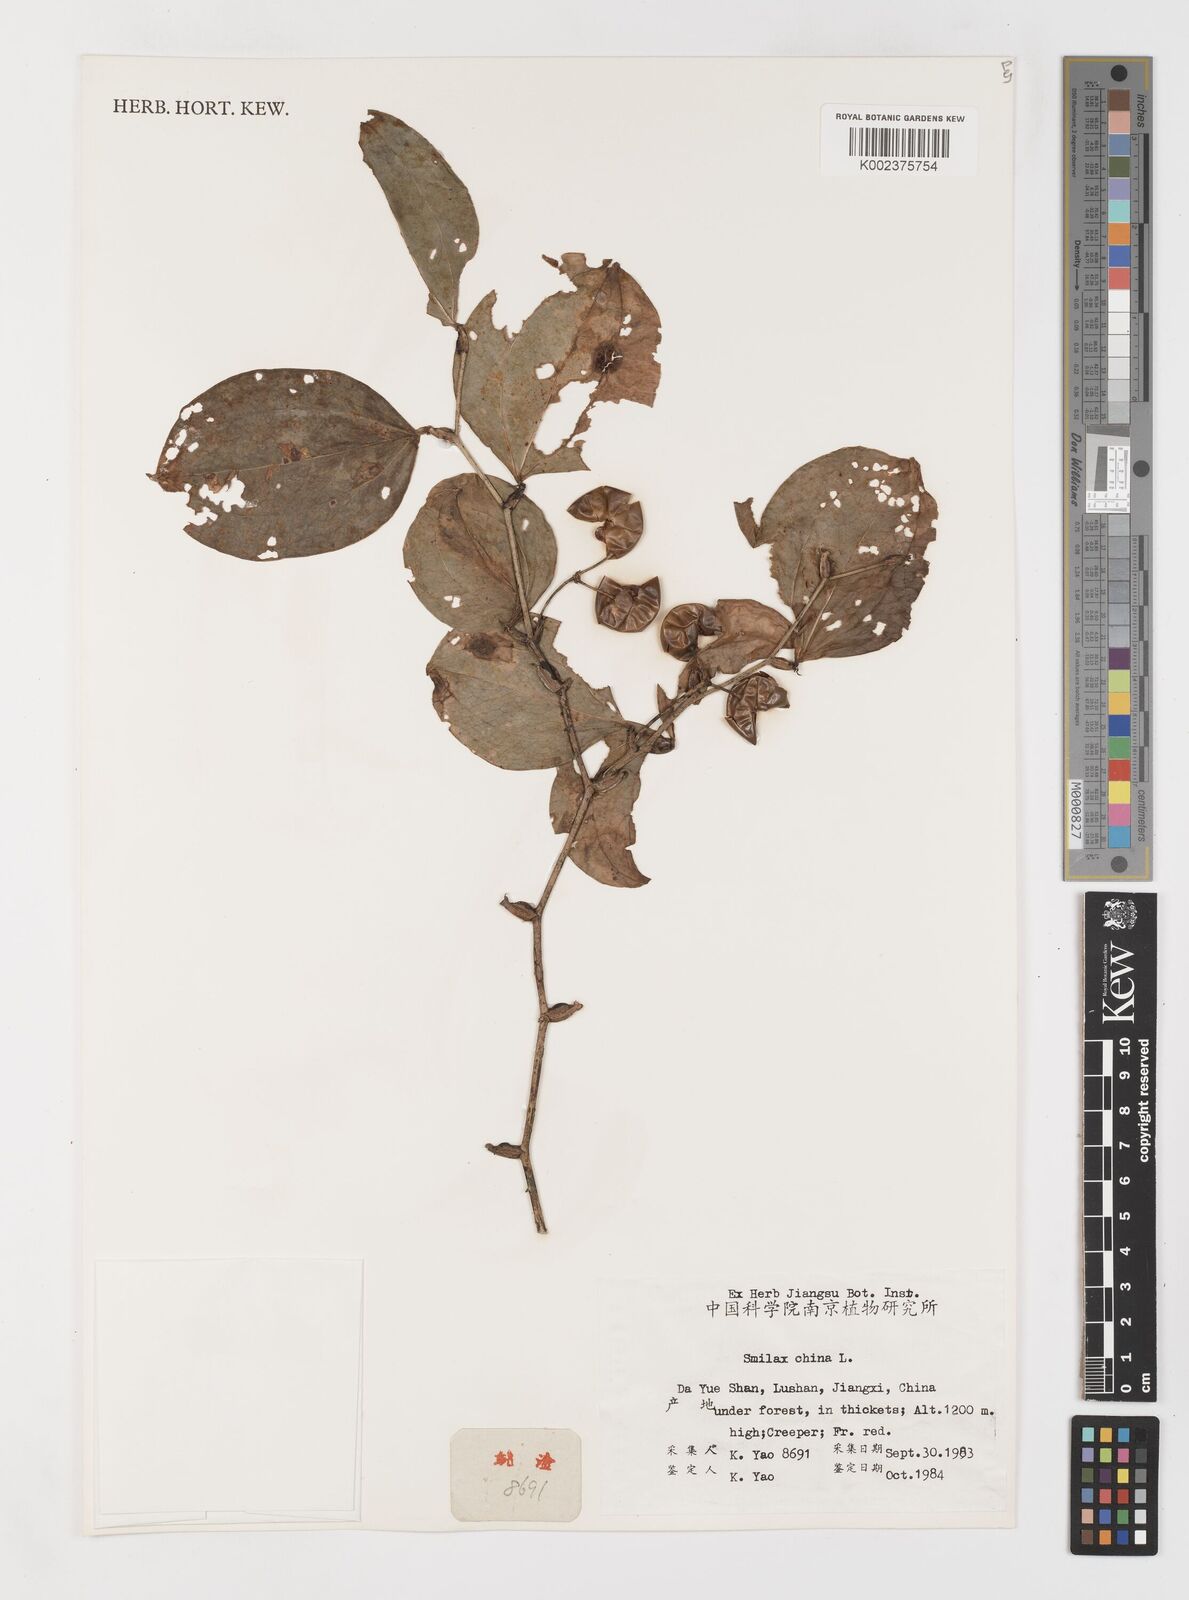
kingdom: Plantae
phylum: Tracheophyta
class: Liliopsida
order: Liliales
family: Smilacaceae
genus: Smilax
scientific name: Smilax china
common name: Chinaroot
